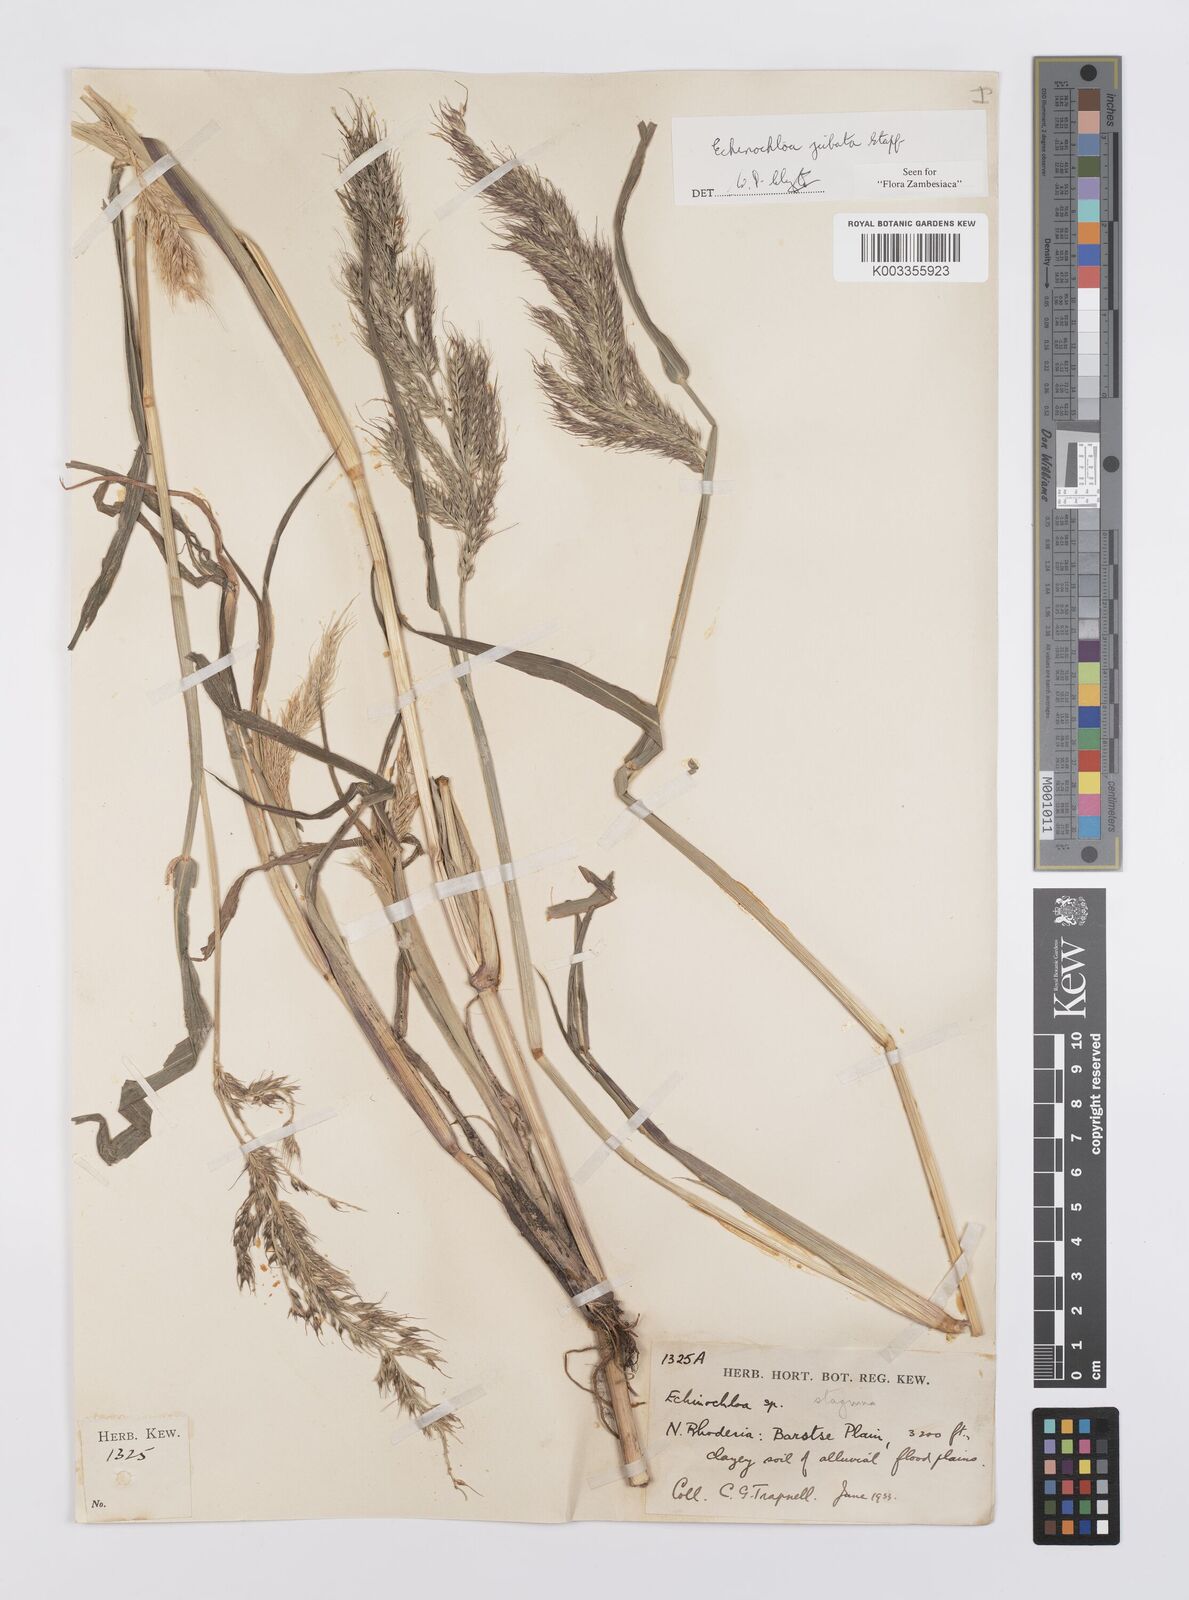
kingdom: Plantae
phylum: Tracheophyta
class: Liliopsida
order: Poales
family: Poaceae
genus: Echinochloa
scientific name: Echinochloa jubata
